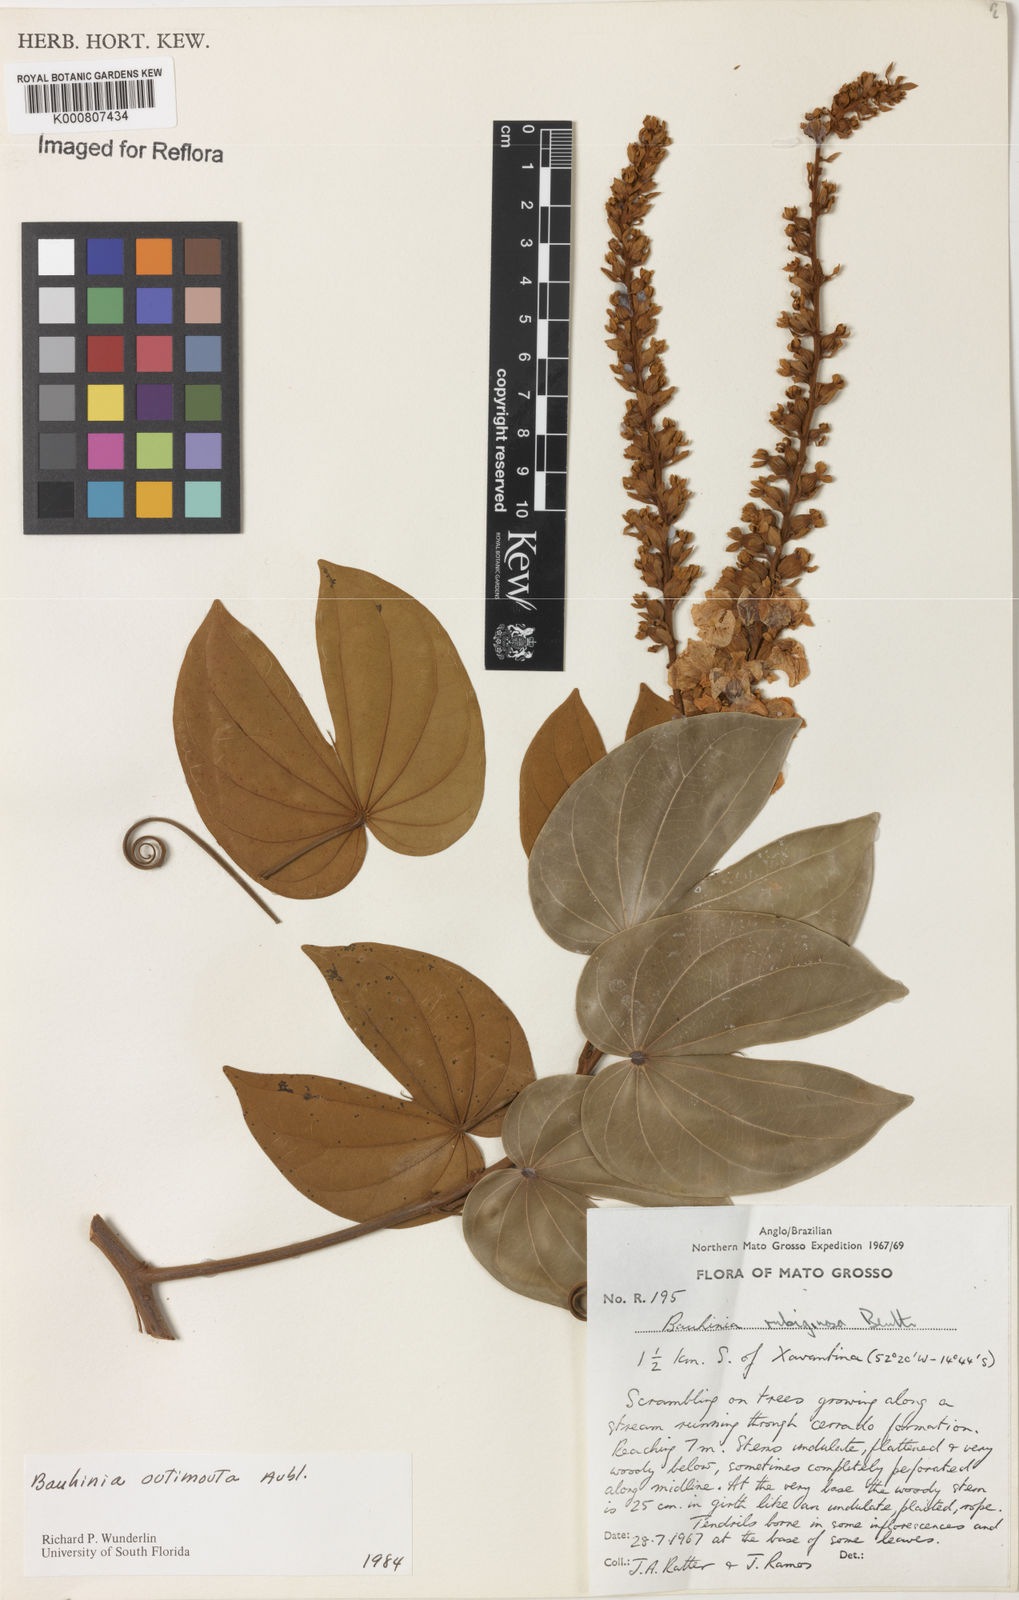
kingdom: Plantae
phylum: Tracheophyta
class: Magnoliopsida
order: Fabales
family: Fabaceae
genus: Schnella
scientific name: Schnella outimouta
